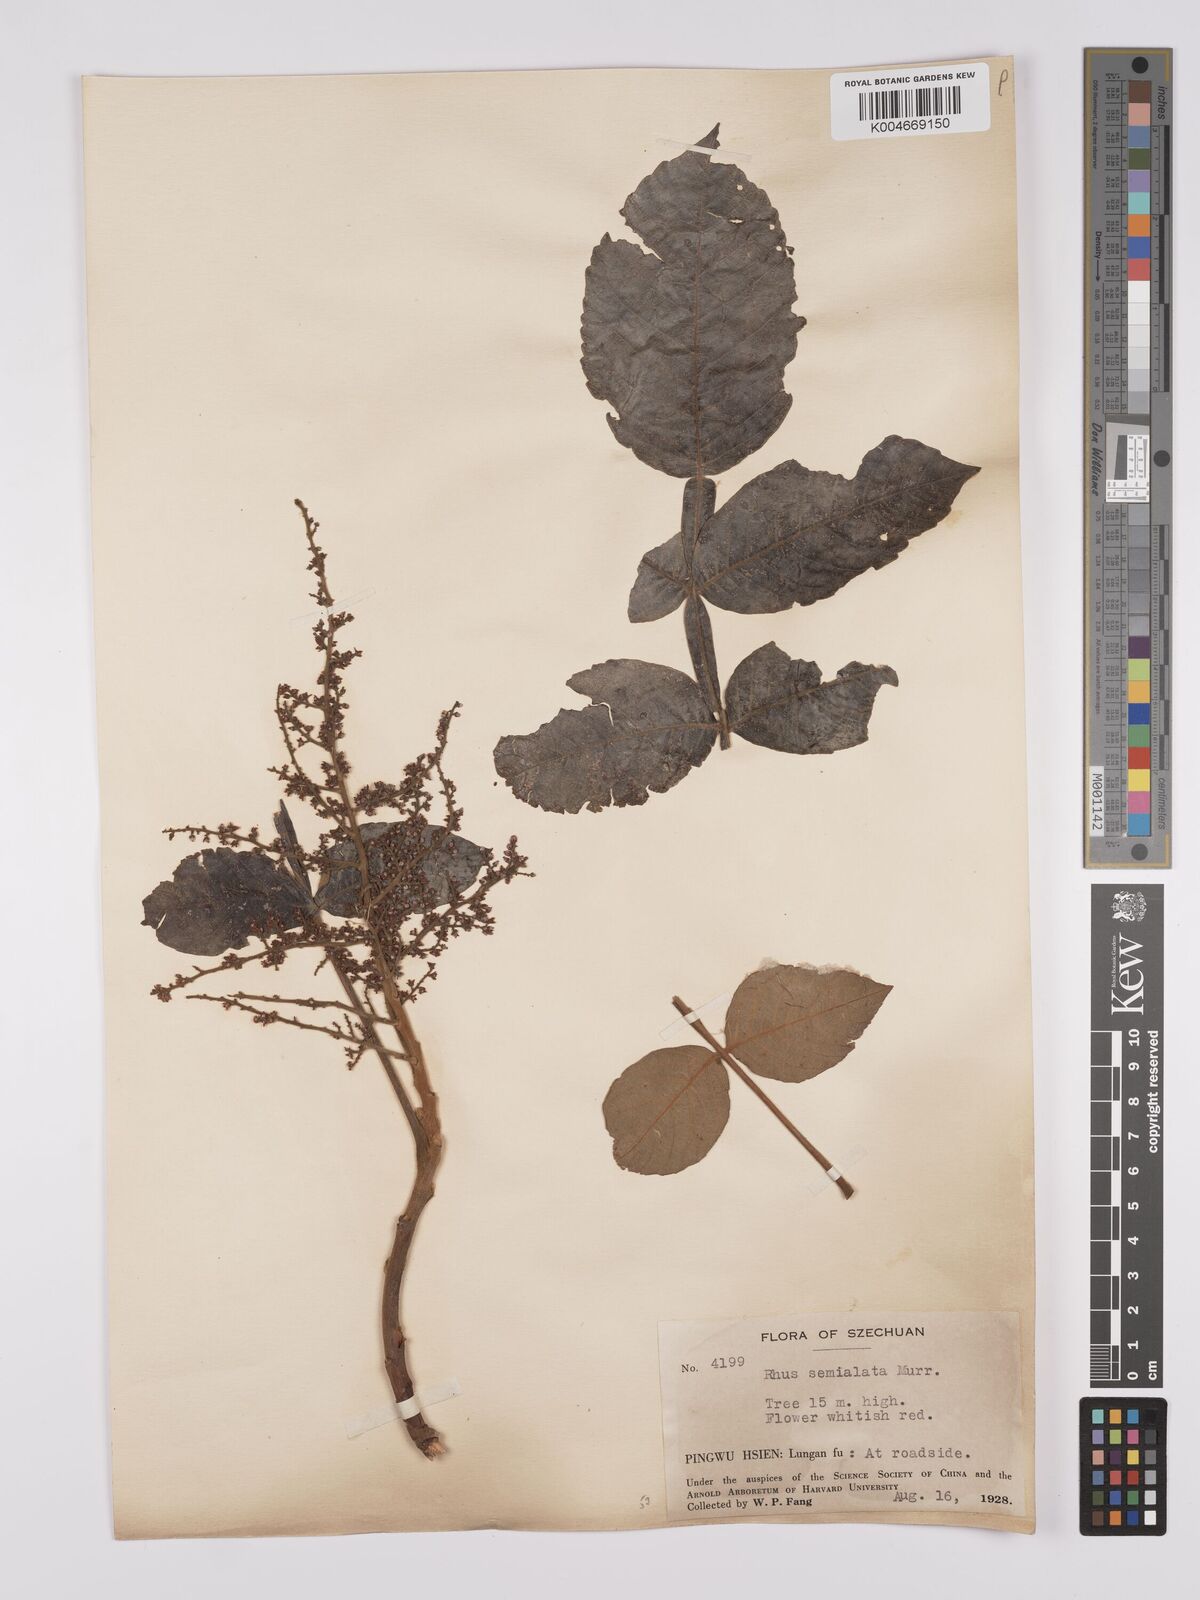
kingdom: Plantae
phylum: Tracheophyta
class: Magnoliopsida
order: Sapindales
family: Anacardiaceae
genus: Rhus
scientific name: Rhus chinensis
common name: Chinese gall
